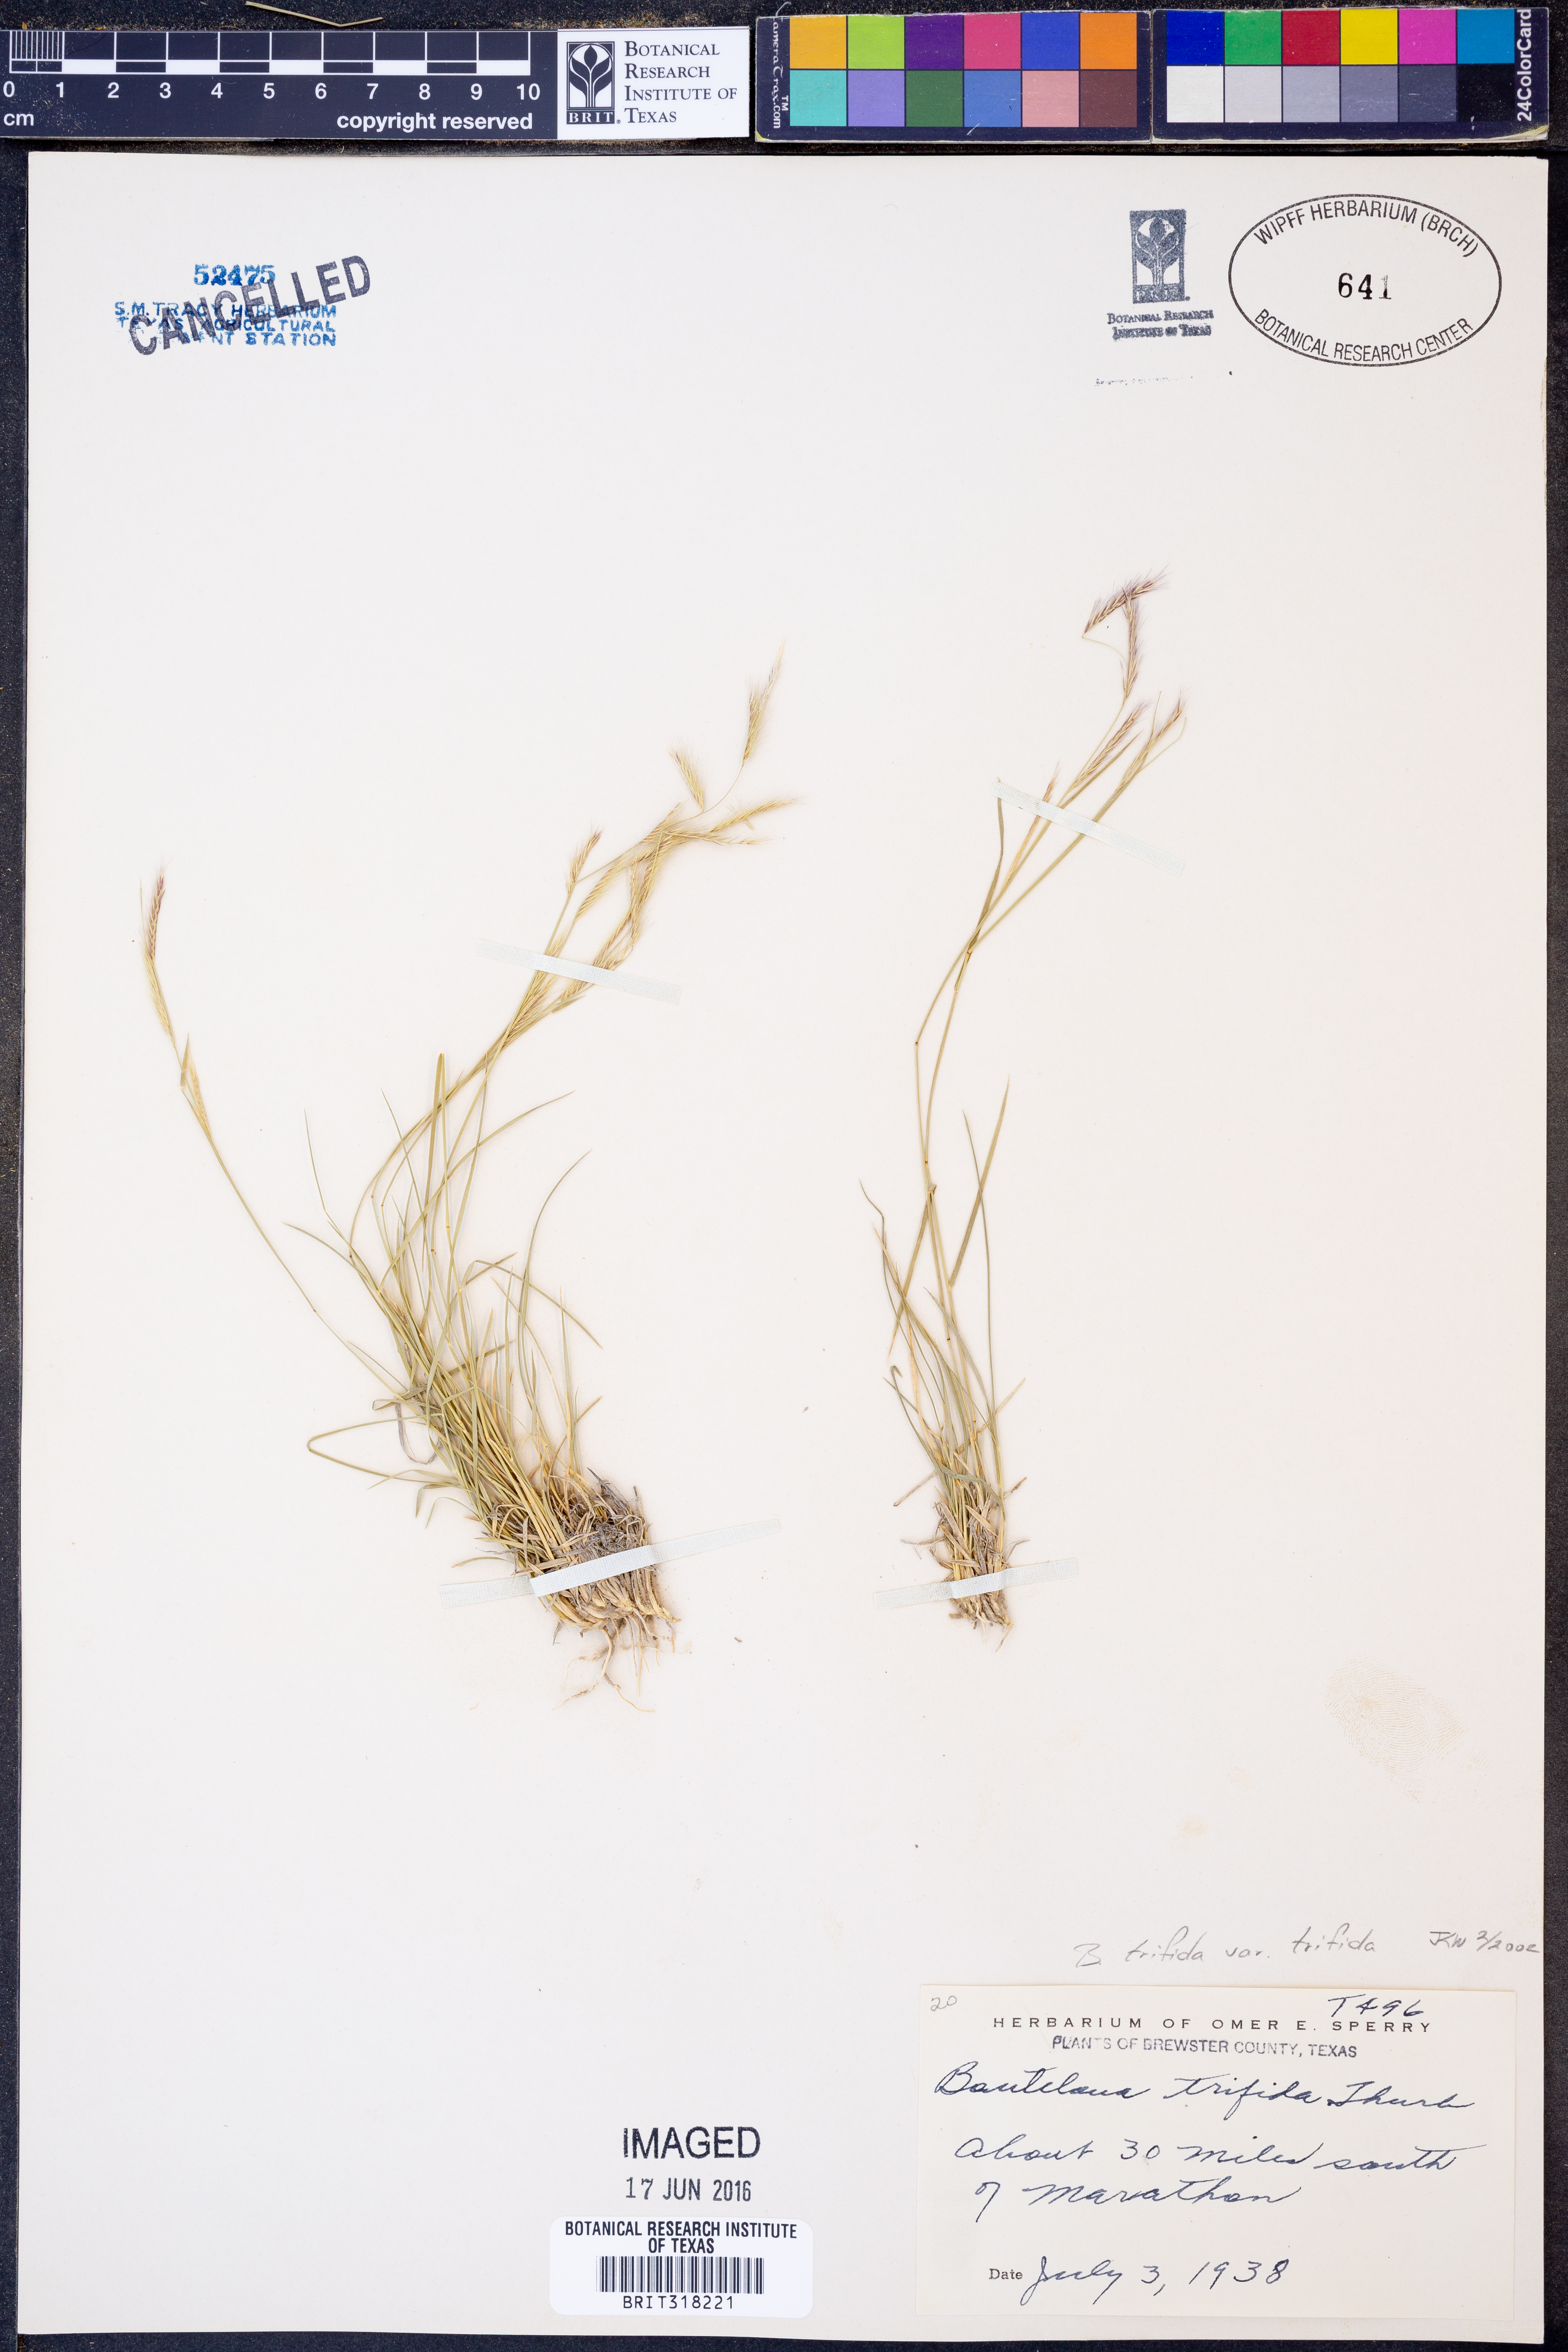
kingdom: Plantae
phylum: Tracheophyta
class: Liliopsida
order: Poales
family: Poaceae
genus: Bouteloua
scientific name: Bouteloua trifida
